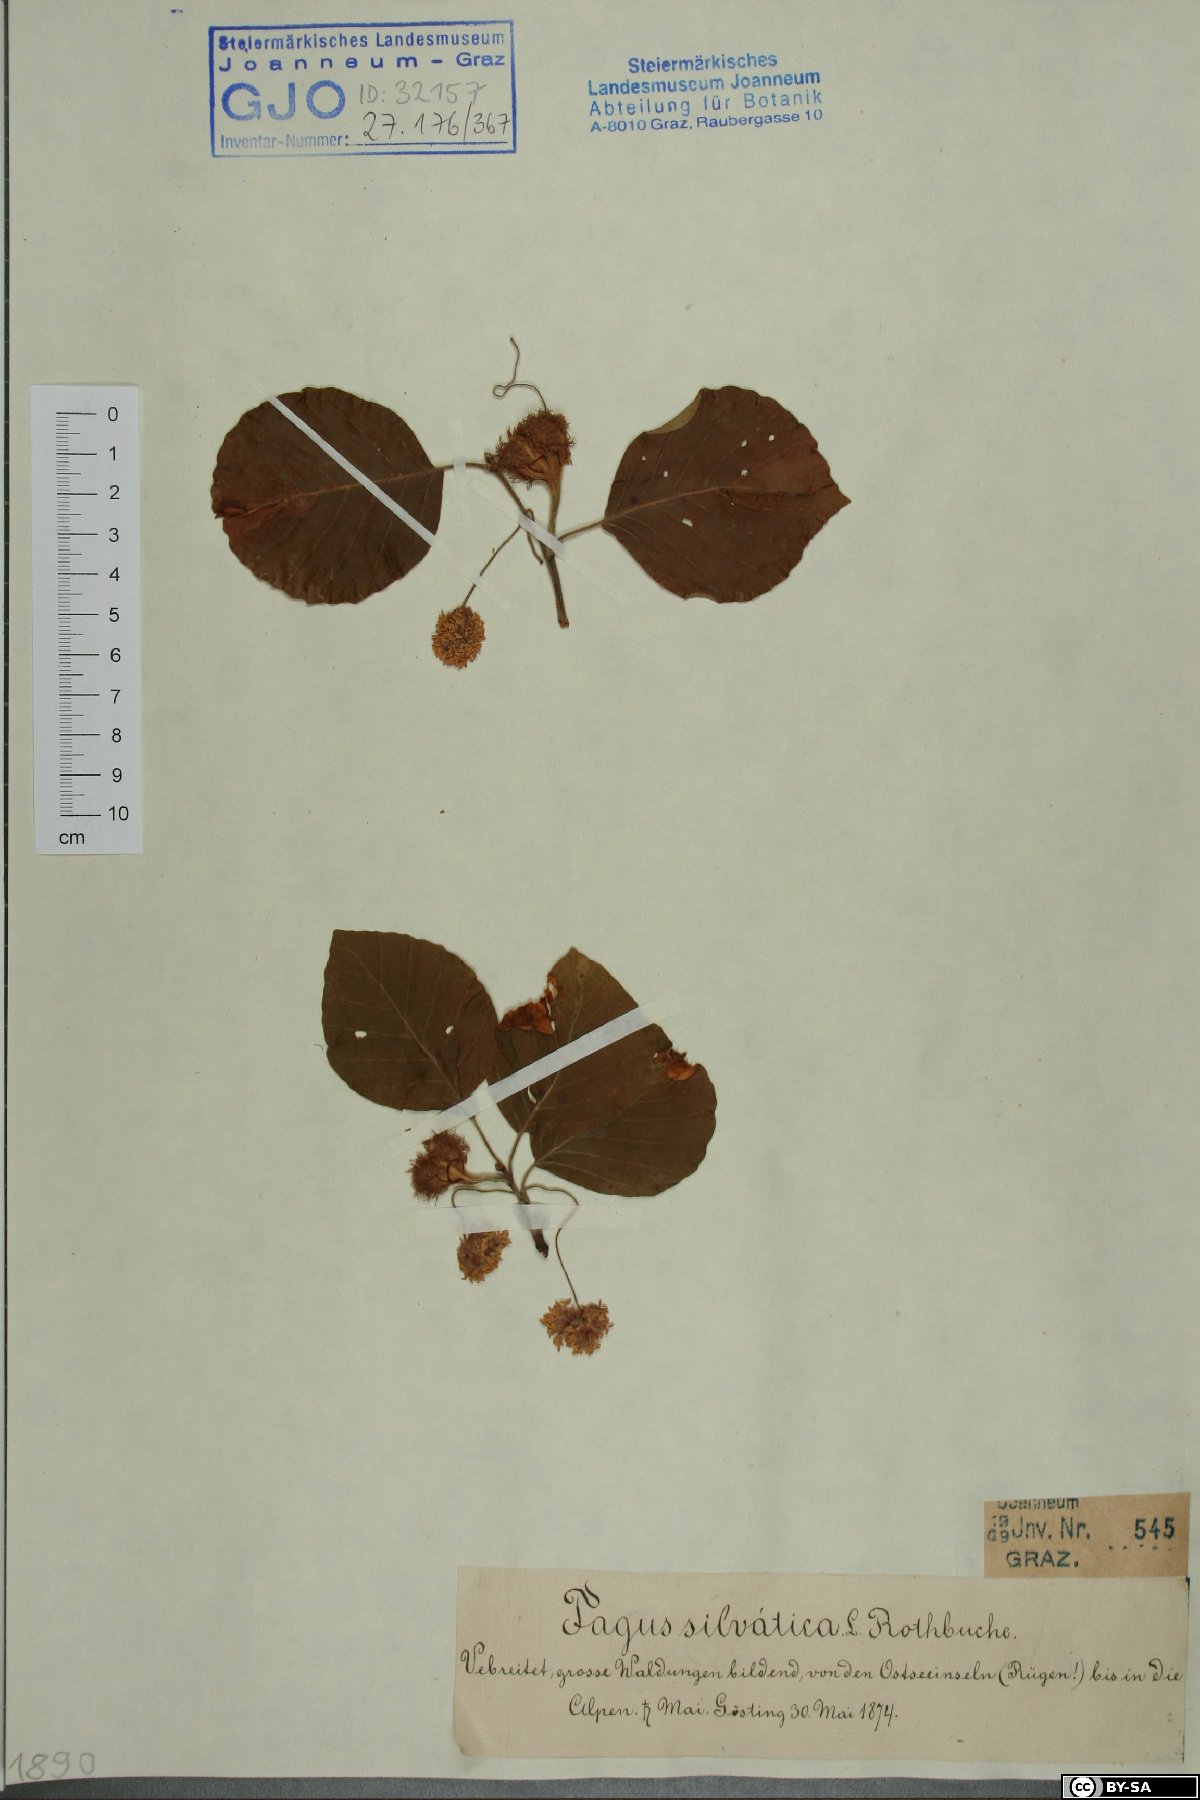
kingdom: Plantae
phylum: Tracheophyta
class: Magnoliopsida
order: Fagales
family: Fagaceae
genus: Fagus
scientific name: Fagus sylvatica
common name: Beech
